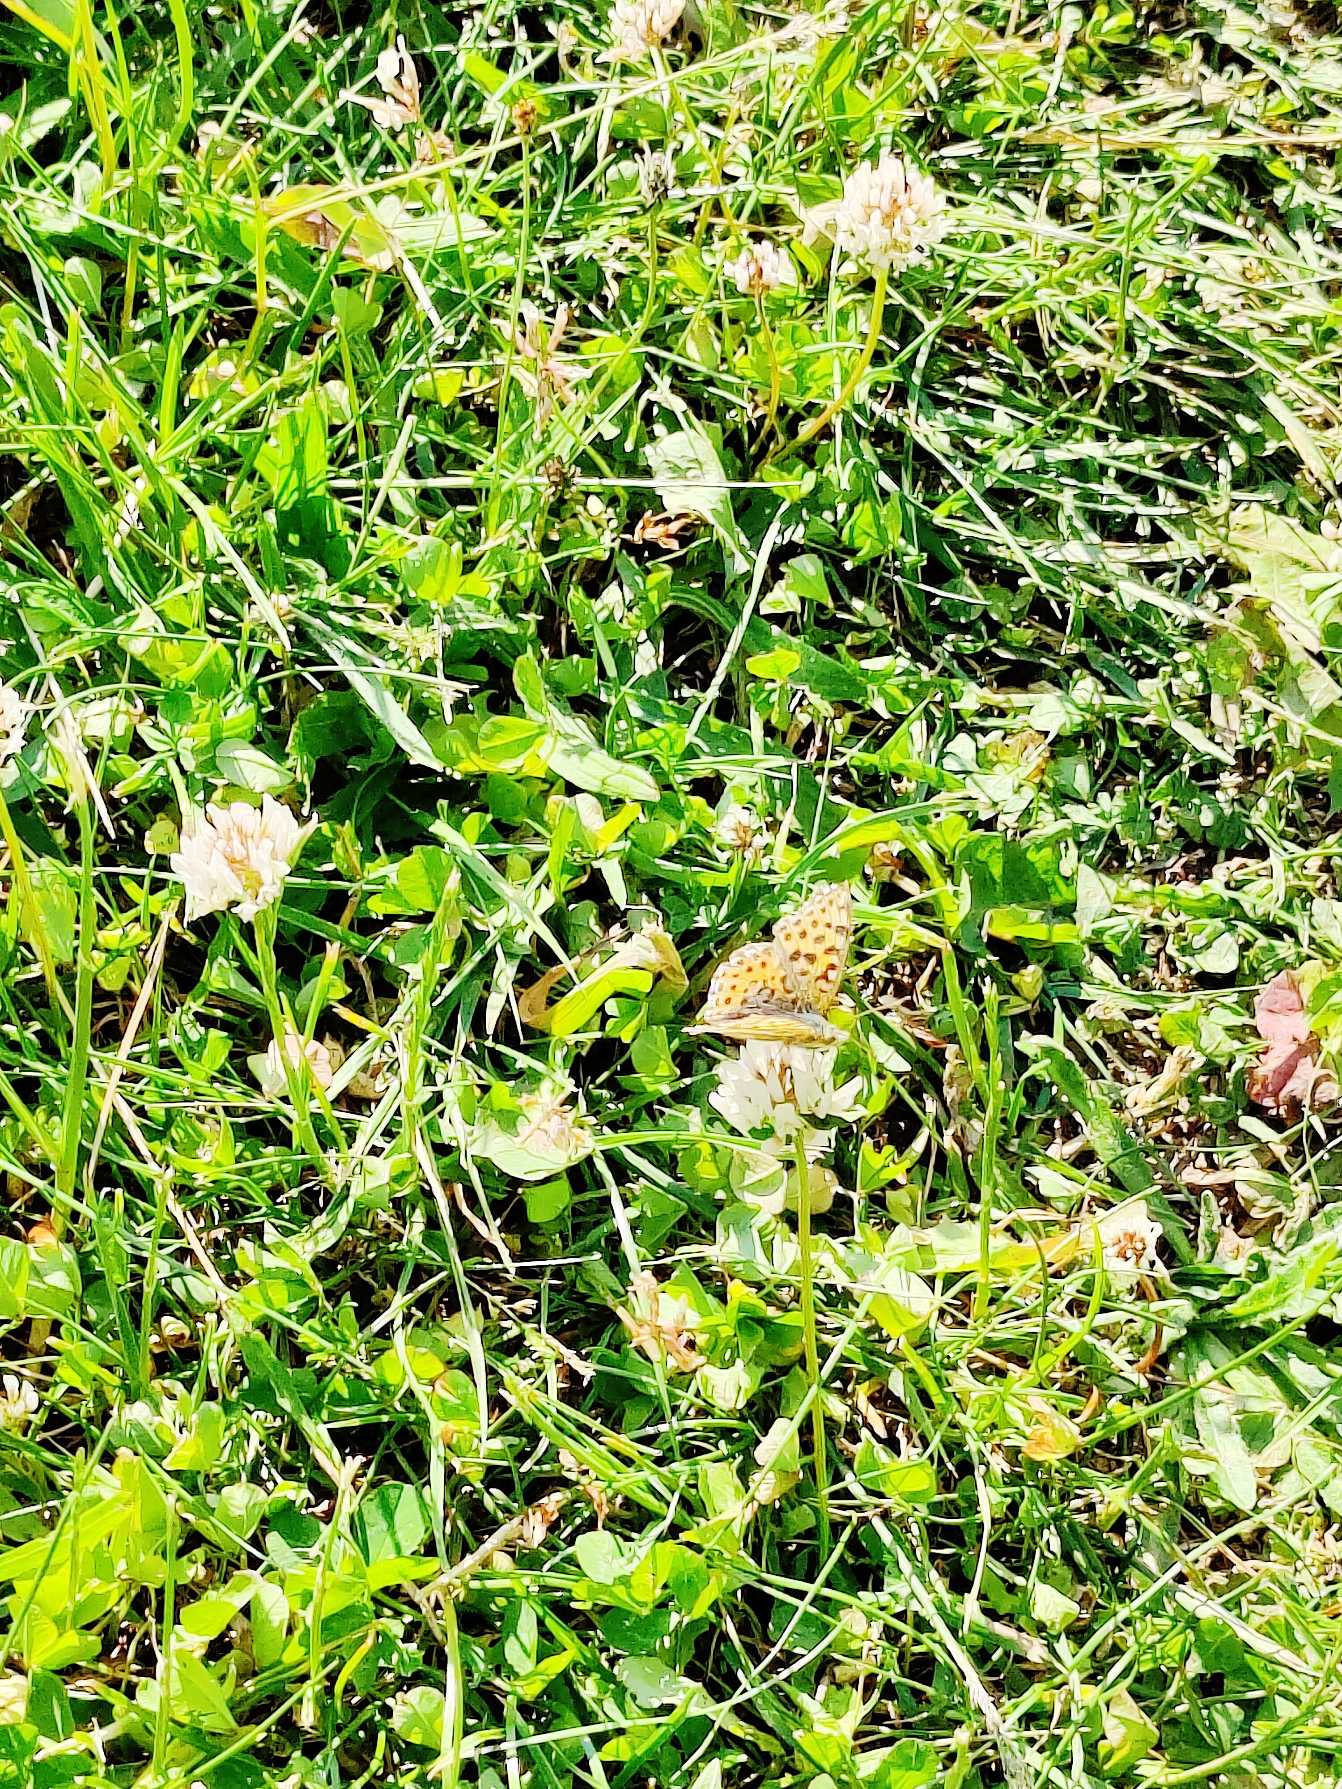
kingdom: Animalia
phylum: Arthropoda
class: Insecta
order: Lepidoptera
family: Nymphalidae
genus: Issoria
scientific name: Issoria lathonia
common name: Storplettet perlemorsommerfugl
